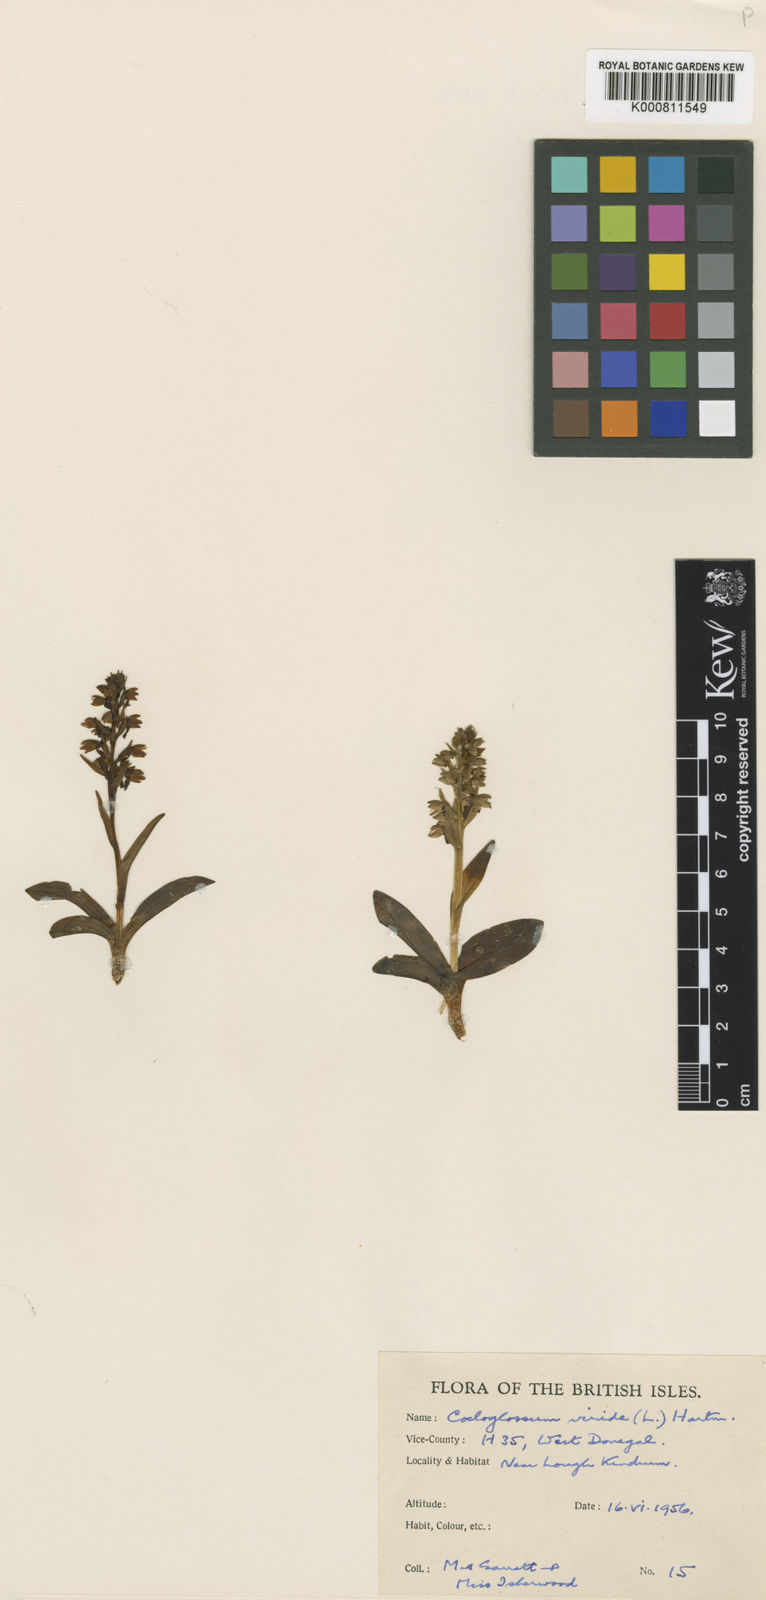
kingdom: Plantae
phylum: Tracheophyta
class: Liliopsida
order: Asparagales
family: Orchidaceae
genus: Dactylorhiza
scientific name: Dactylorhiza viridis
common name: Longbract frog orchid
